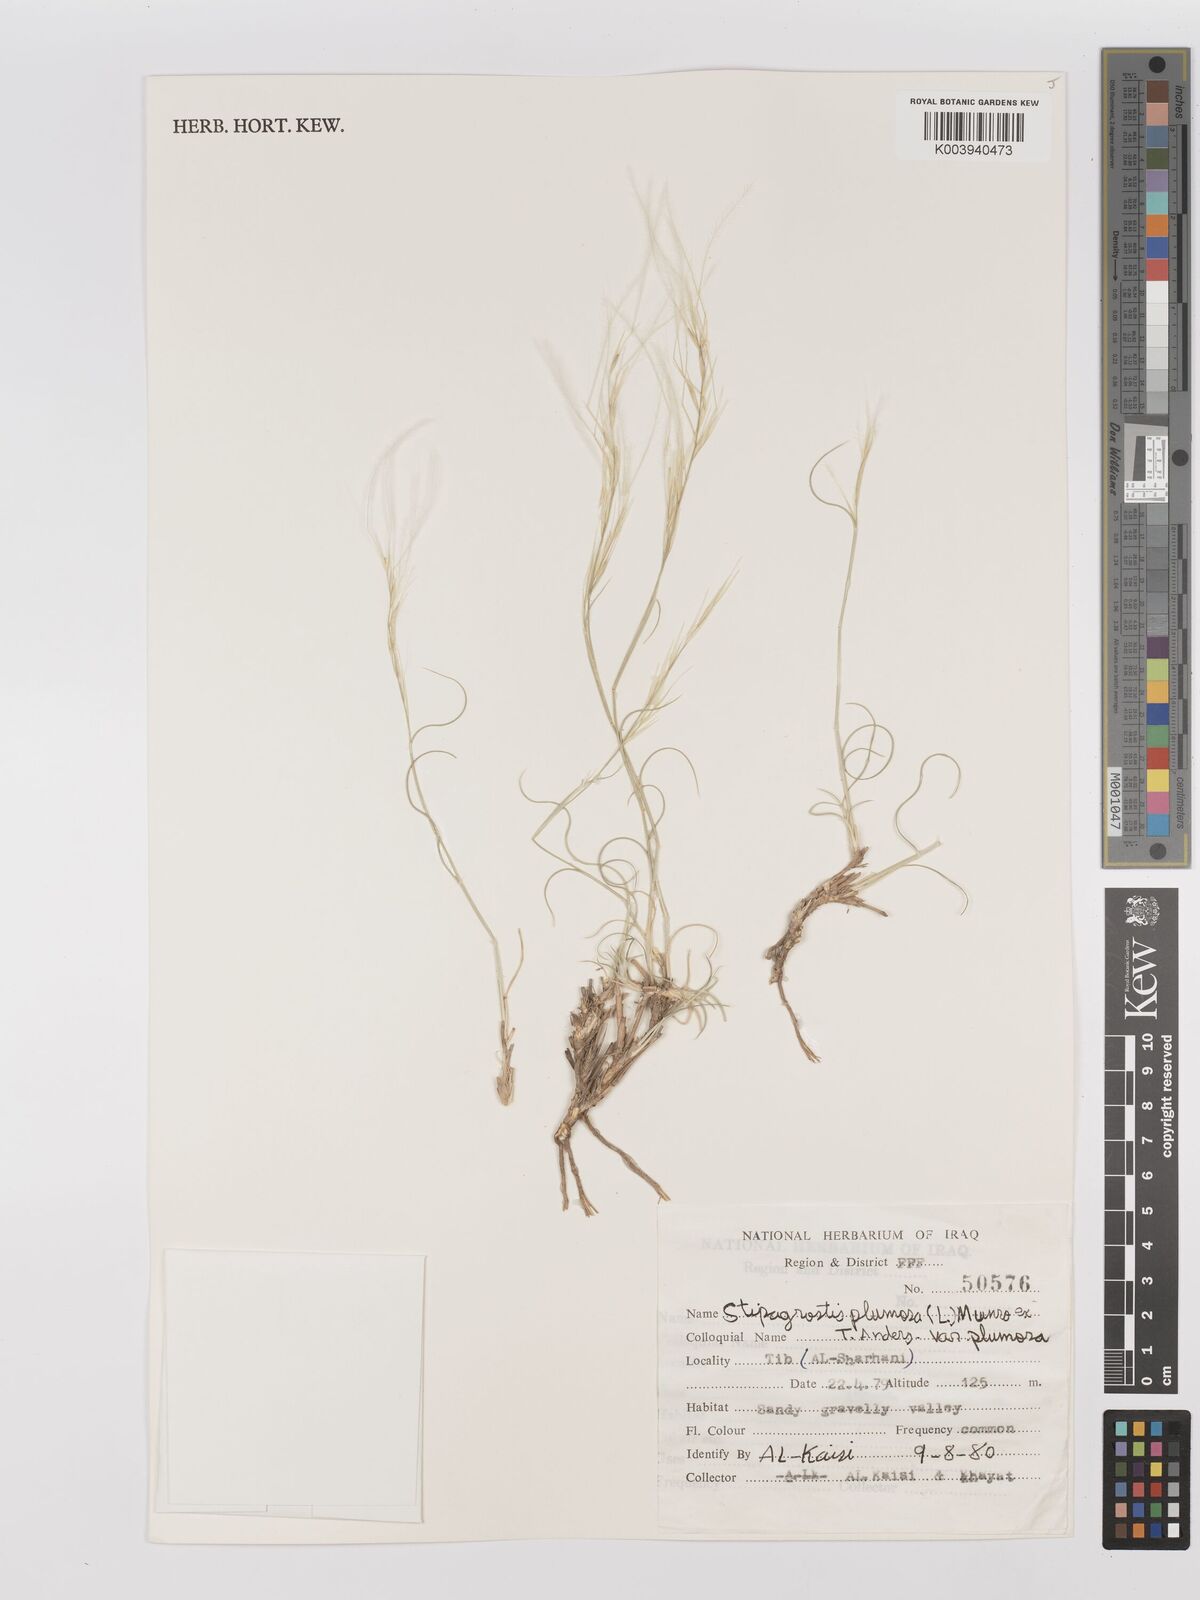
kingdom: Plantae
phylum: Tracheophyta
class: Liliopsida
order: Poales
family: Poaceae
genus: Stipagrostis
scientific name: Stipagrostis plumosa
